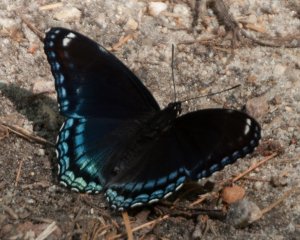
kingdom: Animalia
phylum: Arthropoda
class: Insecta
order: Lepidoptera
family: Nymphalidae
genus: Limenitis
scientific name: Limenitis astyanax
